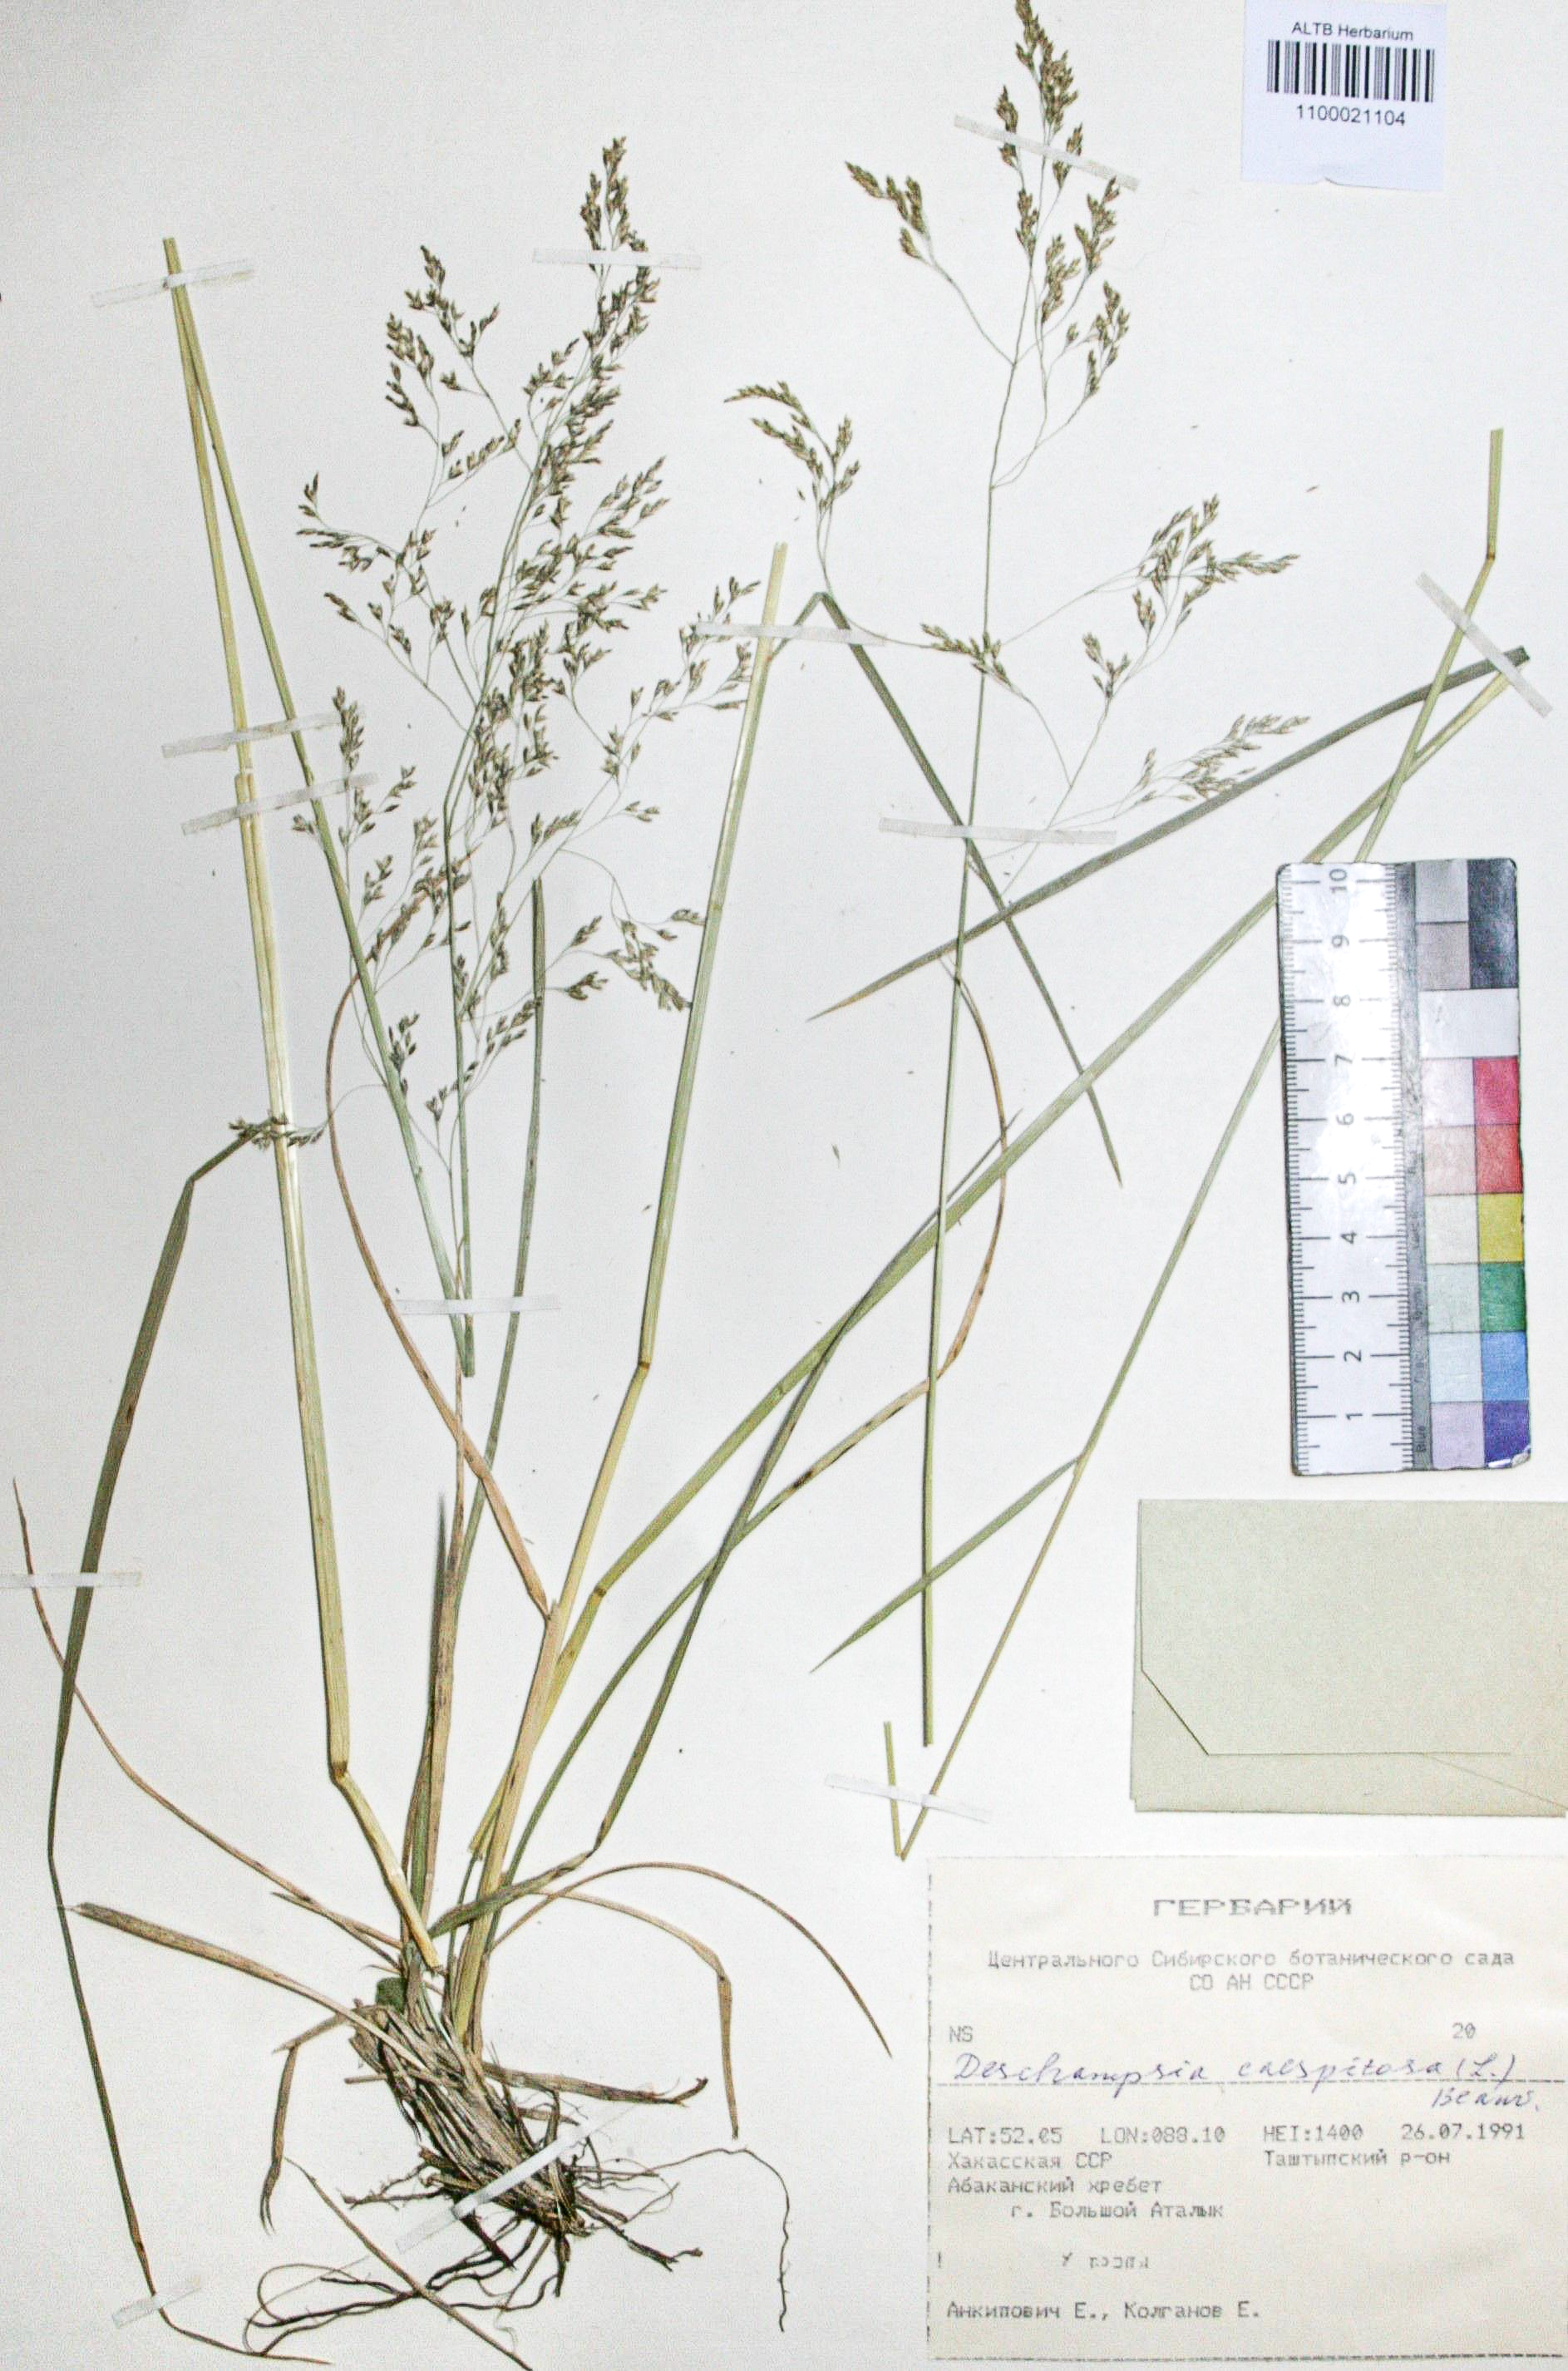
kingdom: Plantae
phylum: Tracheophyta
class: Liliopsida
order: Poales
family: Poaceae
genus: Deschampsia
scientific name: Deschampsia cespitosa
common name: Tufted hair-grass
